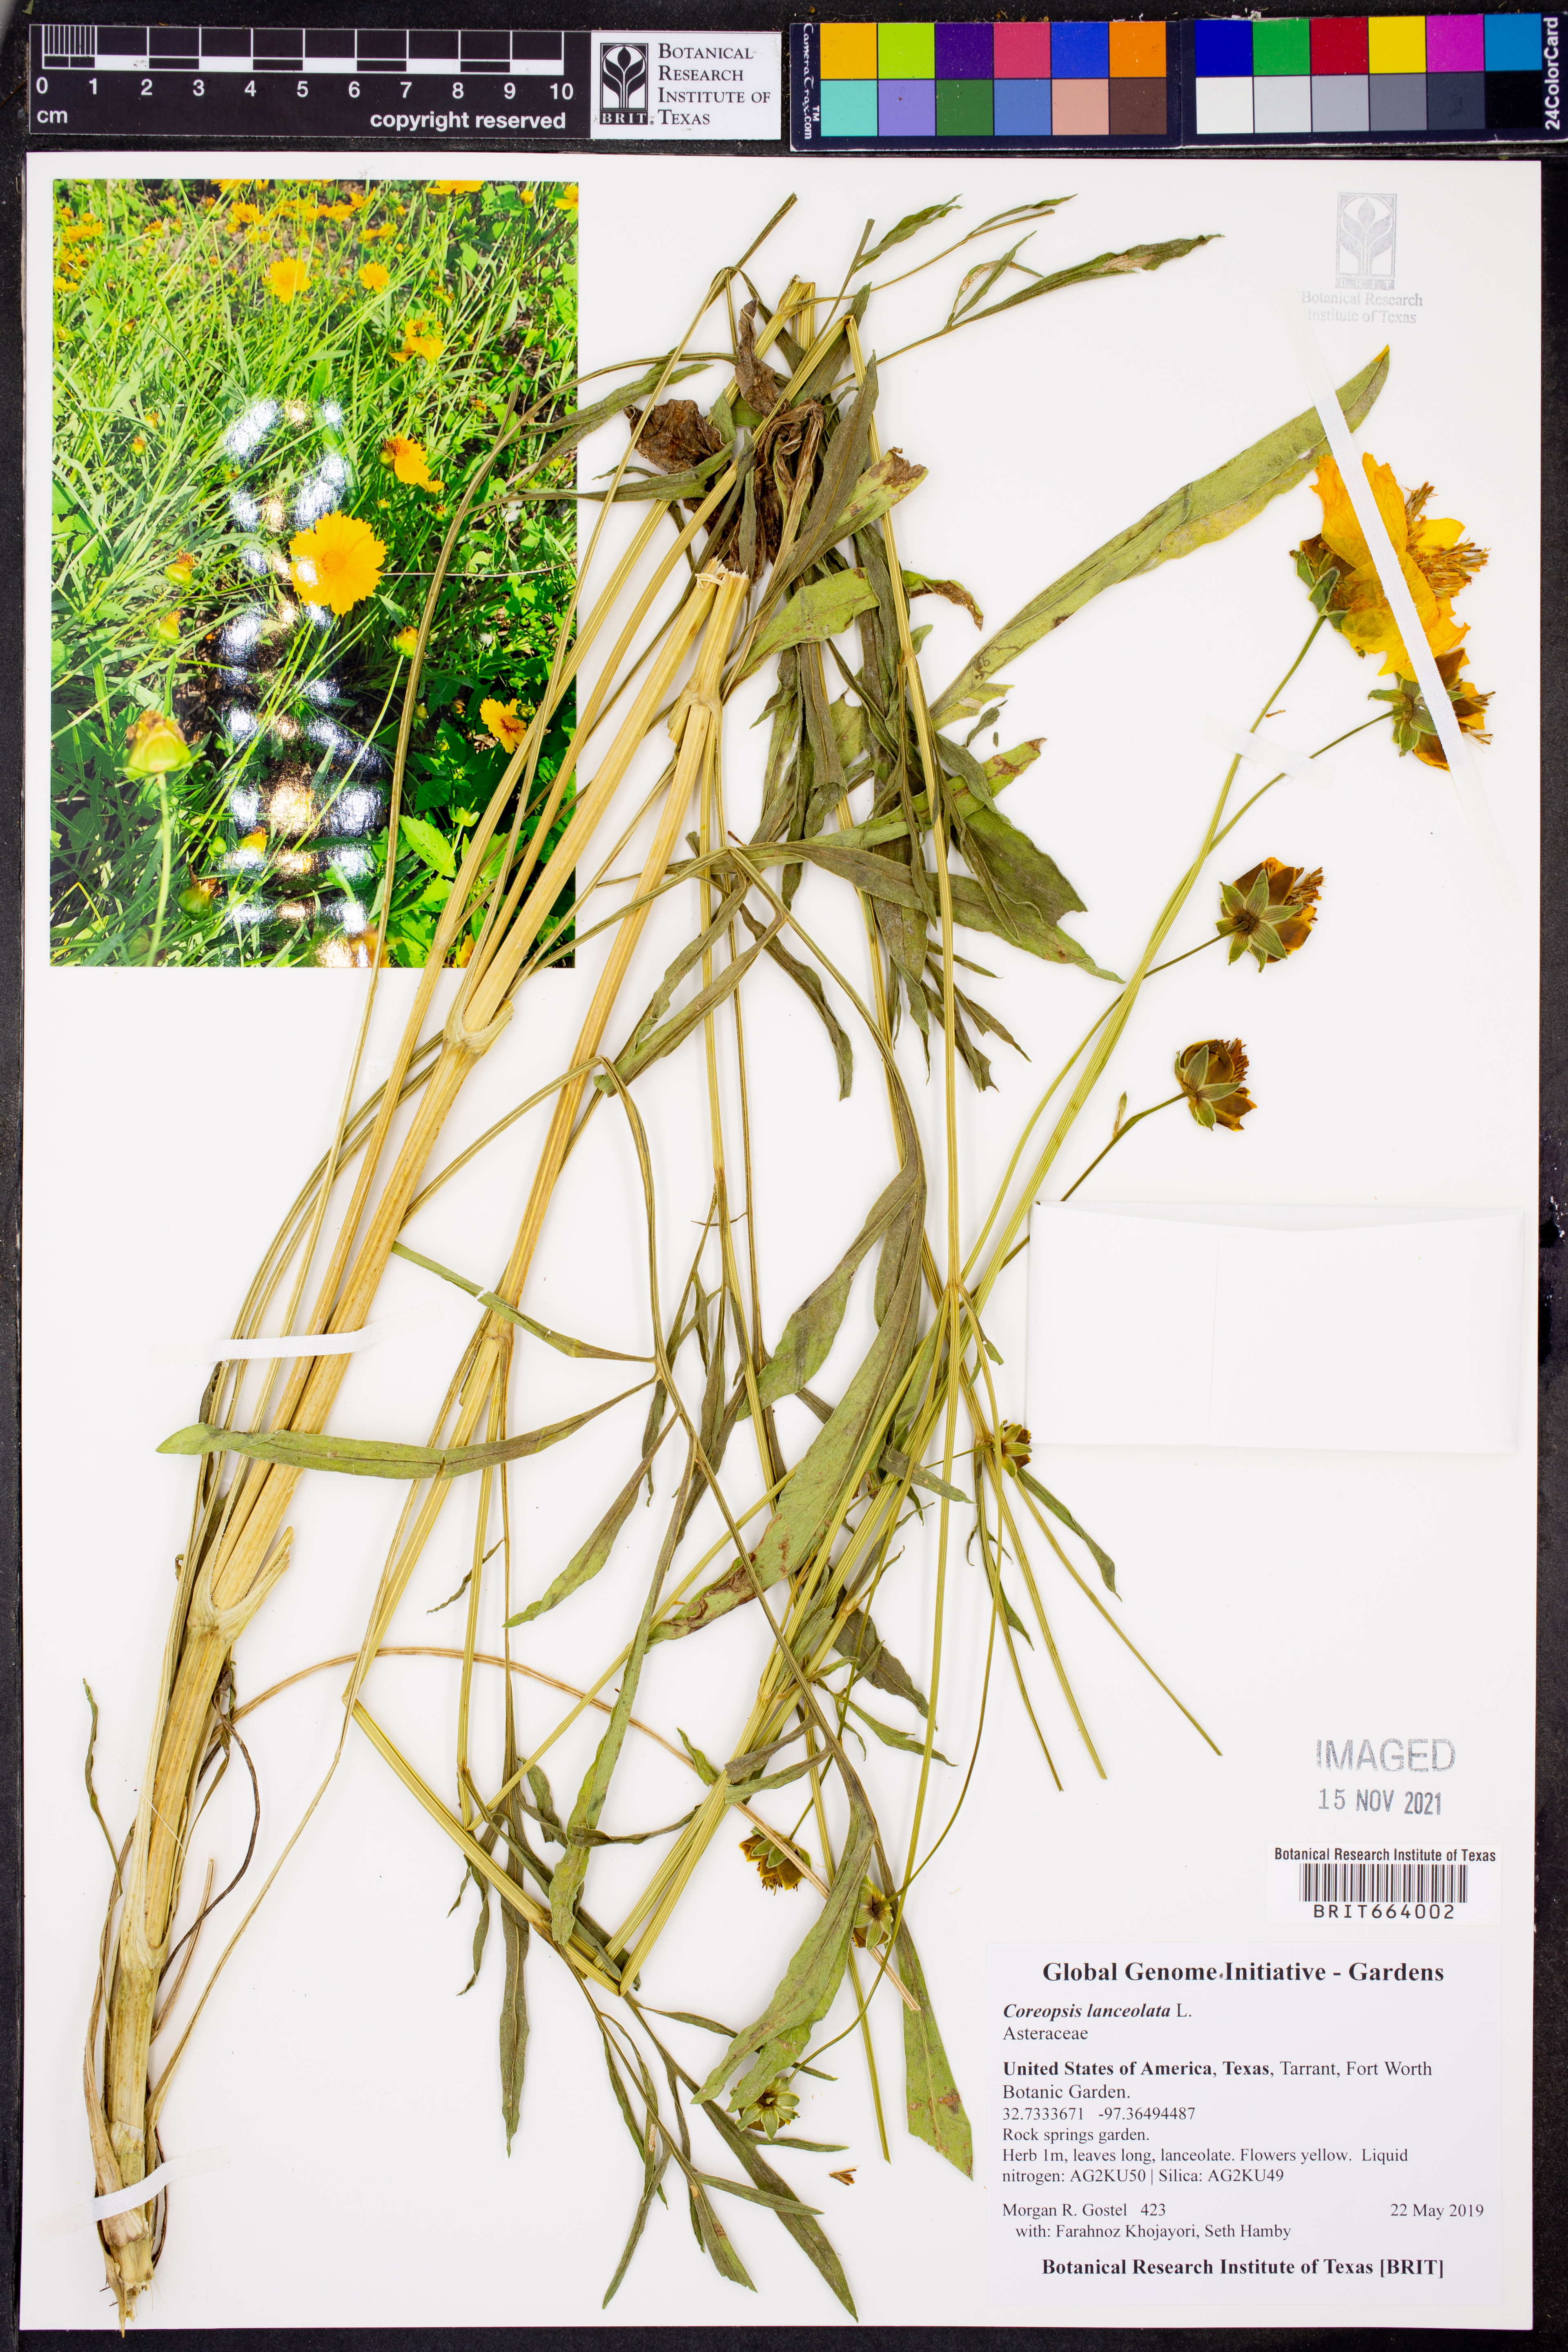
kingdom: Plantae
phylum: Tracheophyta
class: Magnoliopsida
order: Asterales
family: Asteraceae
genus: Coreopsis
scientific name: Coreopsis lanceolata
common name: Garden coreopsis
